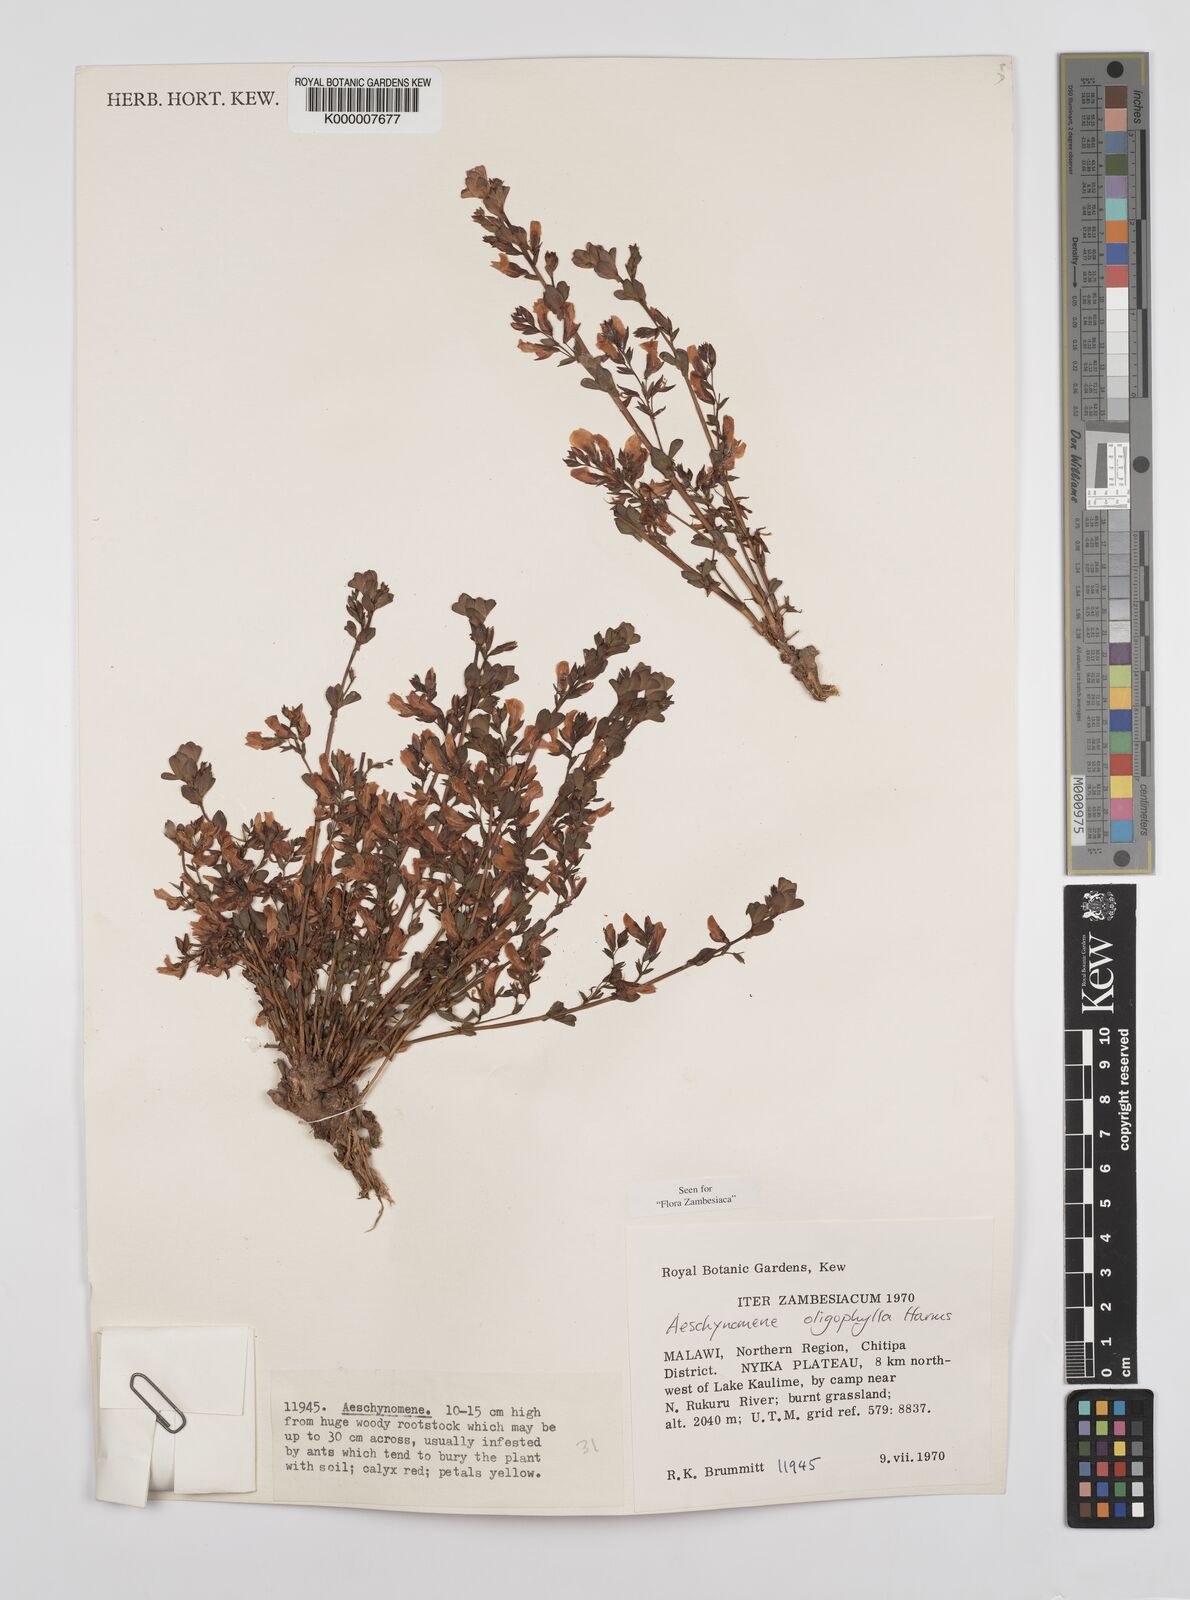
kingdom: Plantae
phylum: Tracheophyta
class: Magnoliopsida
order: Fabales
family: Fabaceae
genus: Aeschynomene
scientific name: Aeschynomene oligophylla
